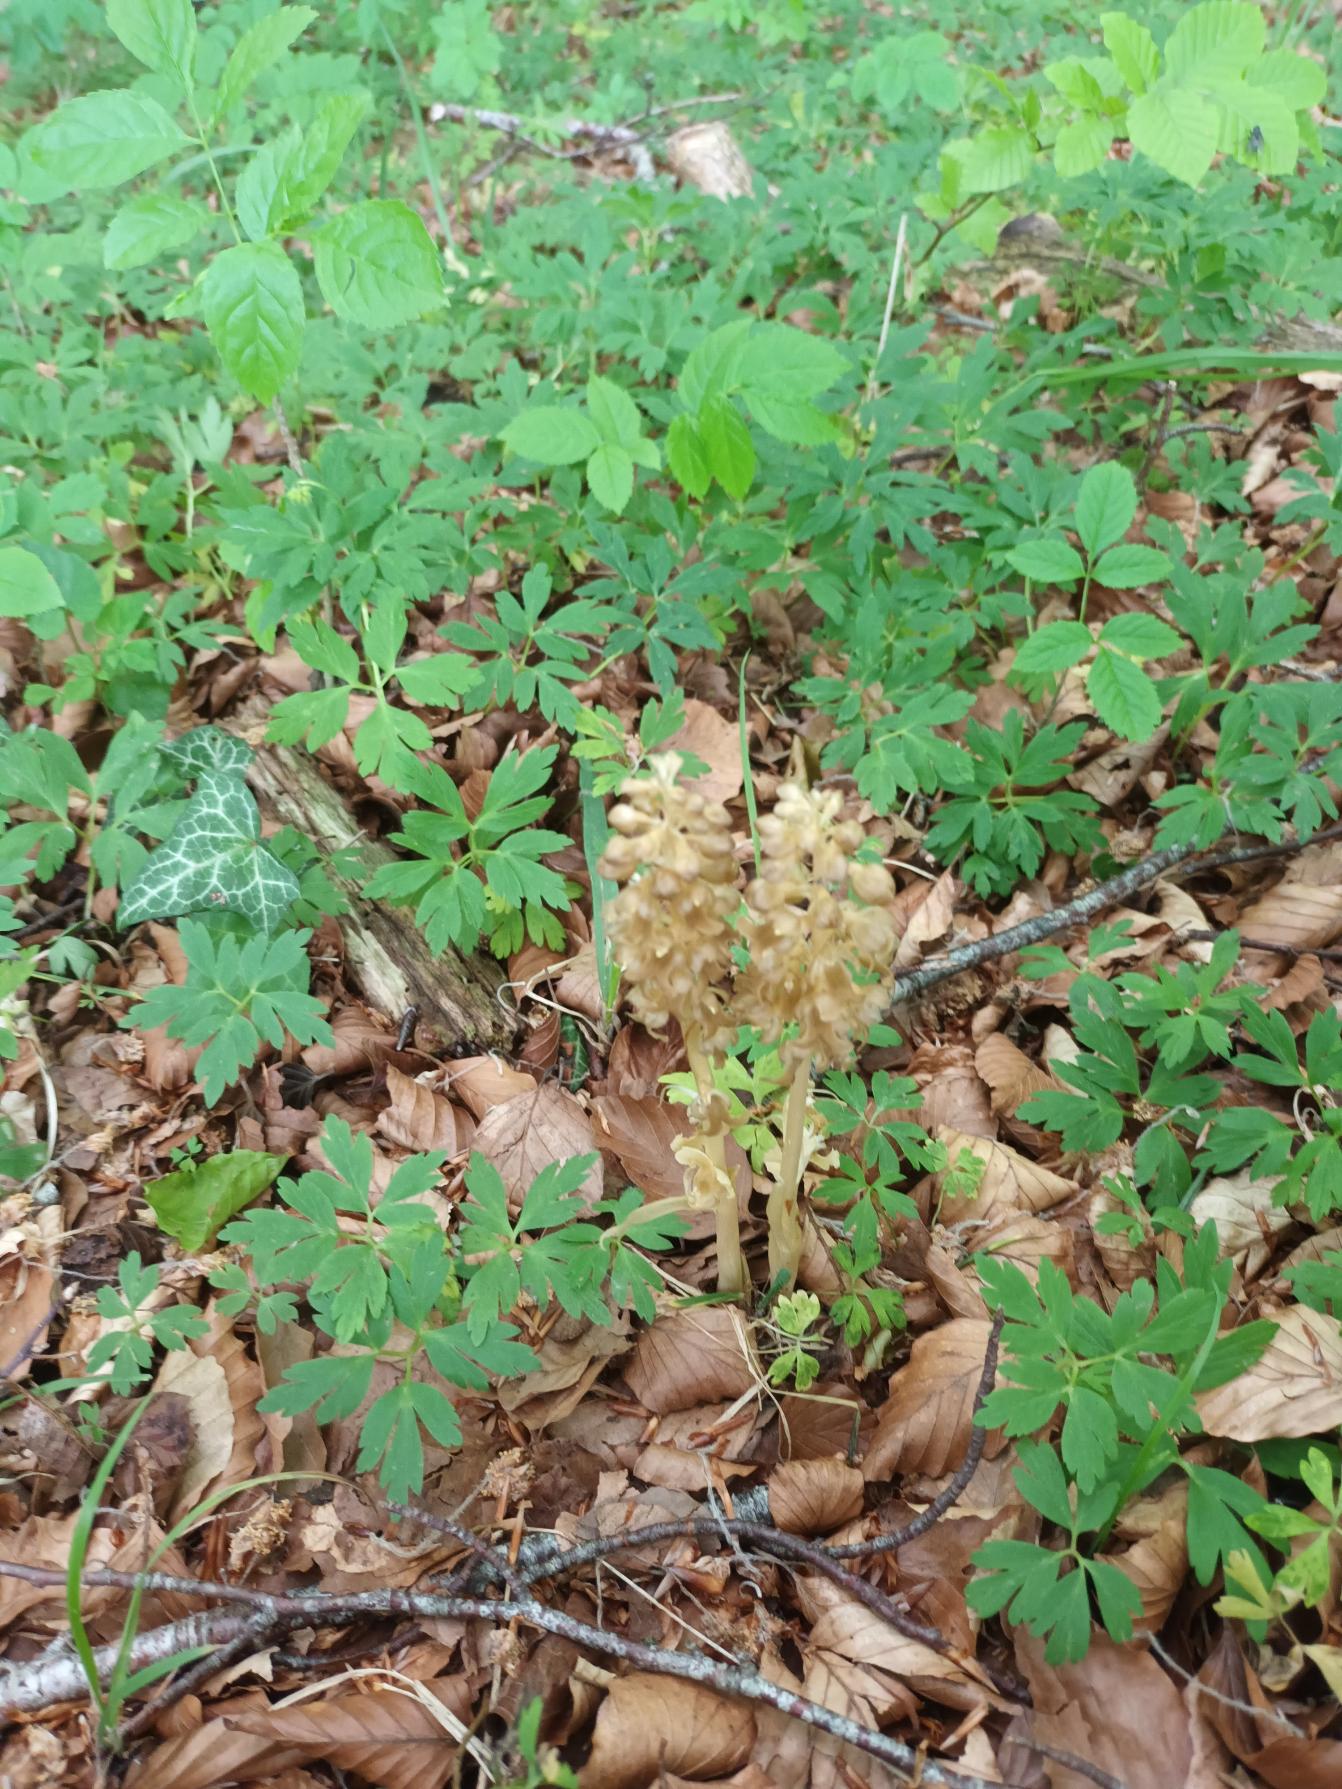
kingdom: Plantae
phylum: Tracheophyta
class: Liliopsida
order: Asparagales
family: Orchidaceae
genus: Neottia
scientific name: Neottia nidus-avis
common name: Rederod
